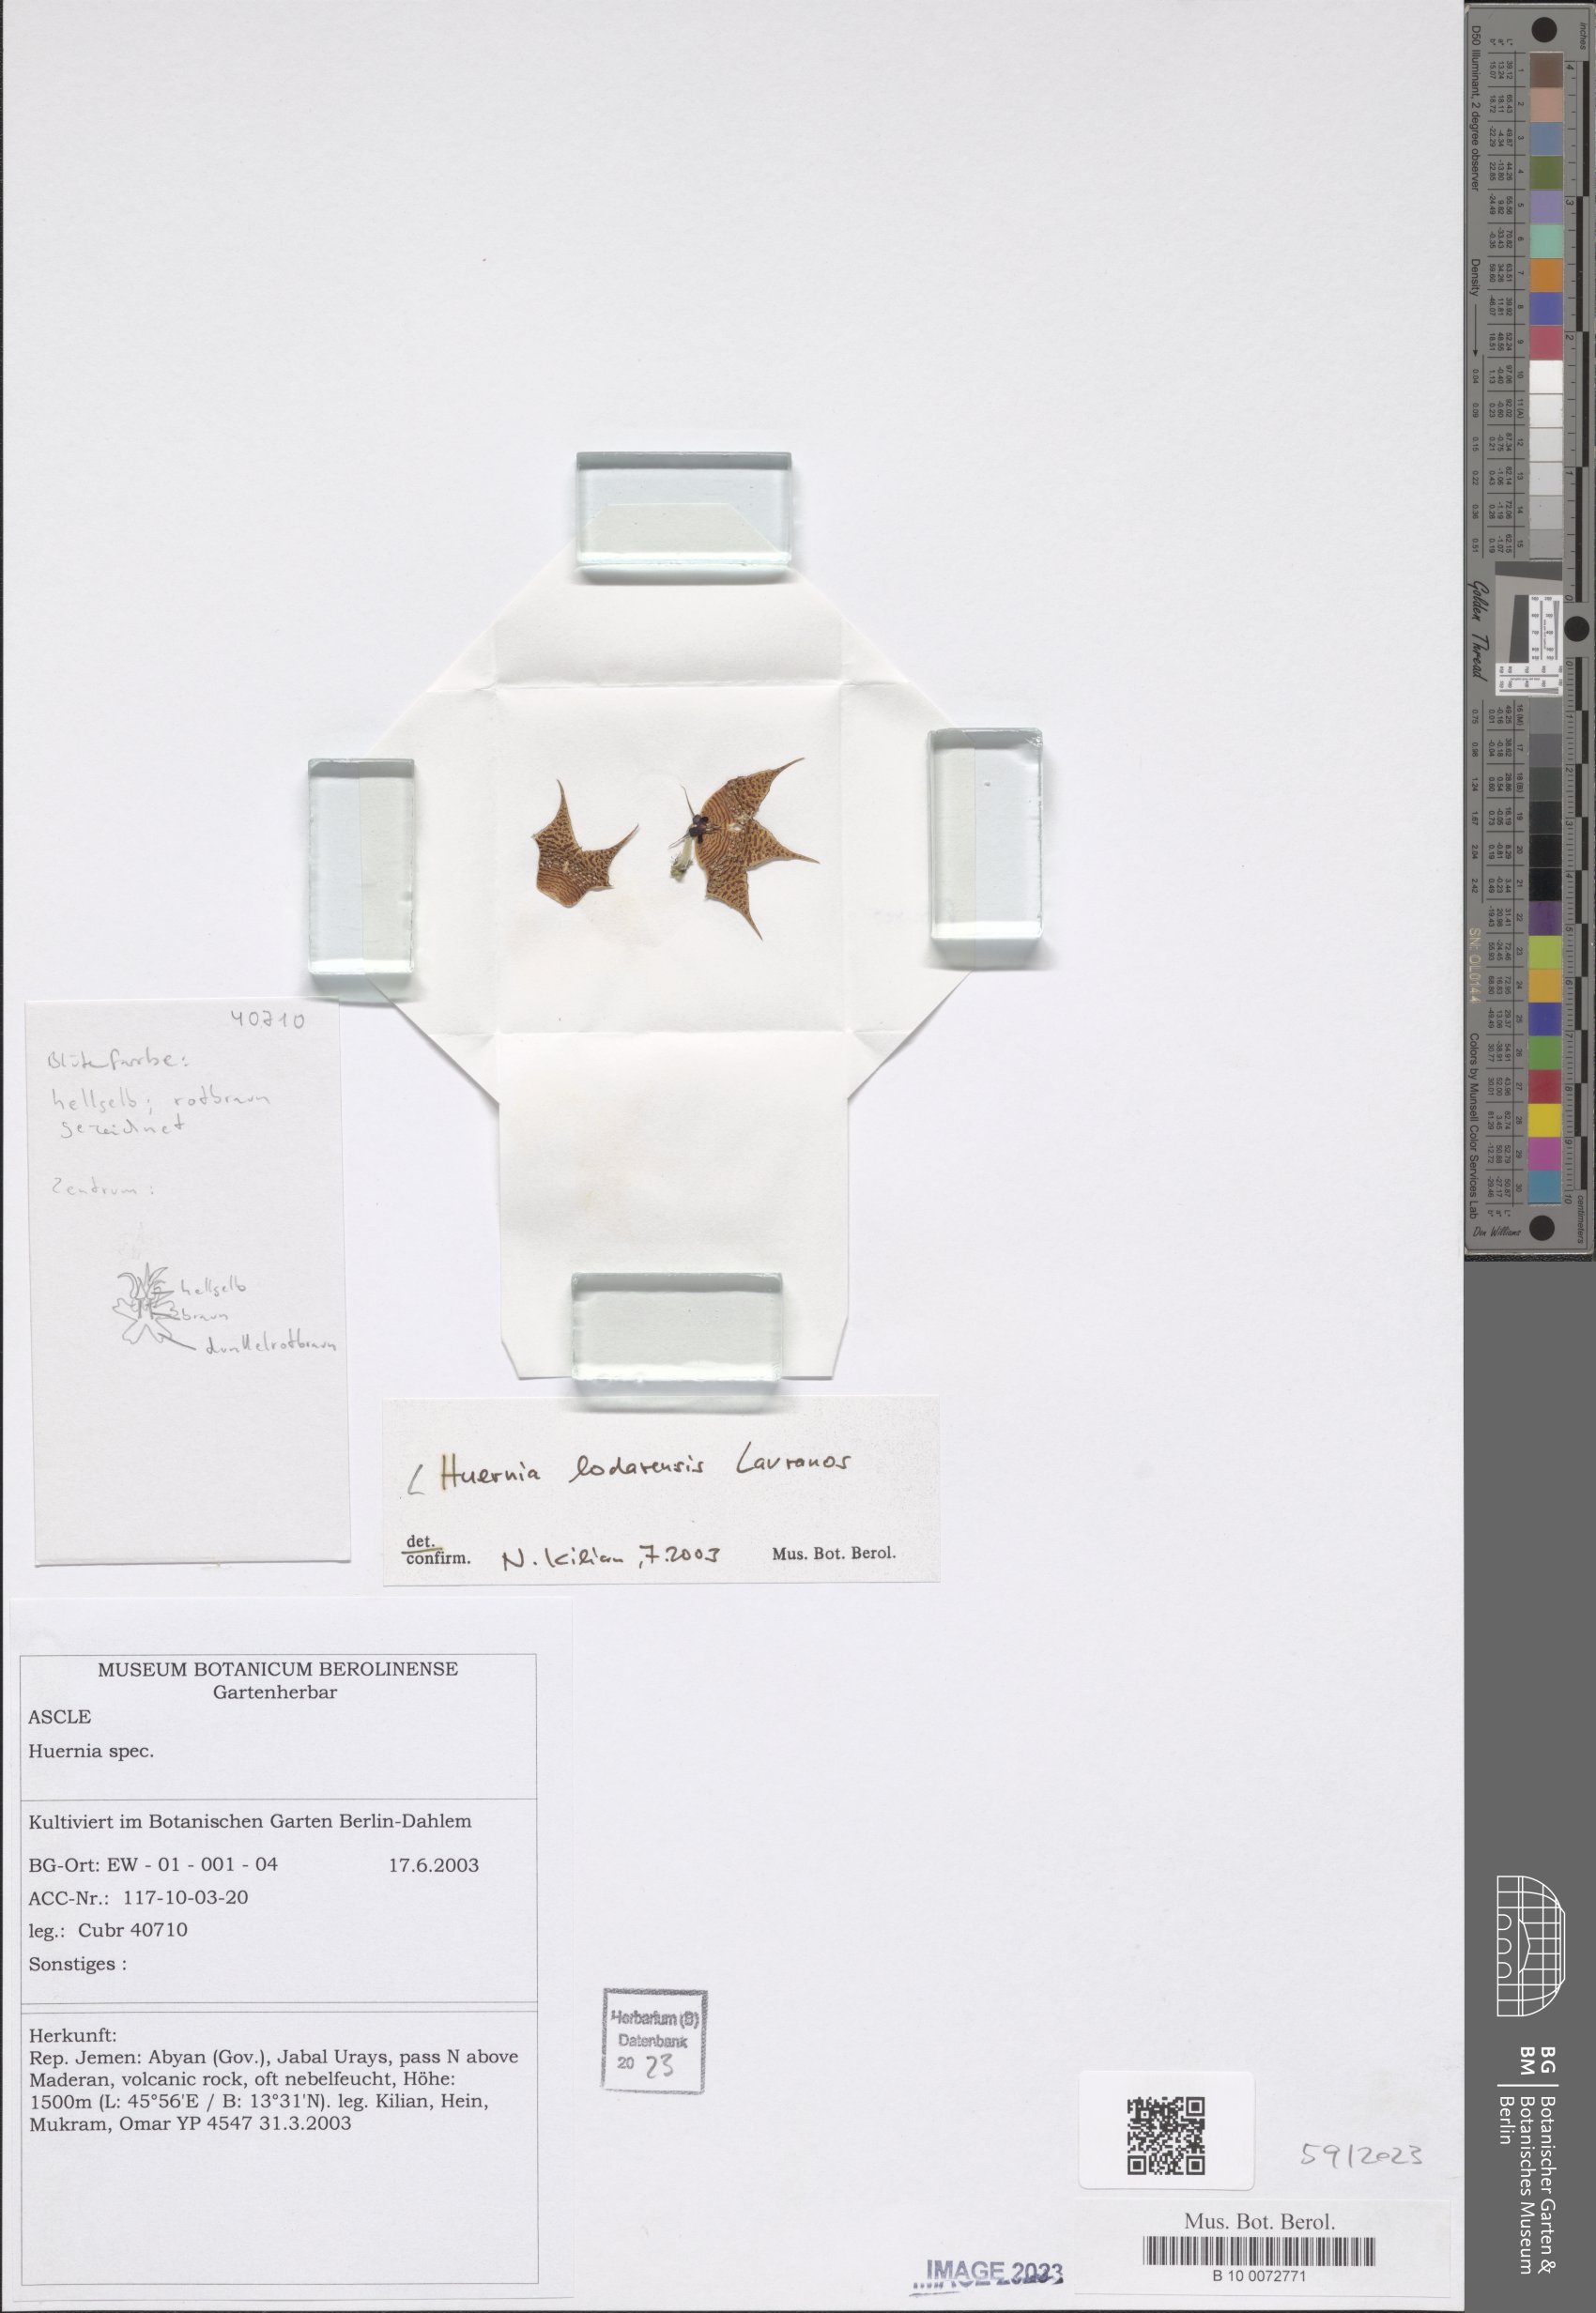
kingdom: Plantae
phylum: Tracheophyta
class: Magnoliopsida
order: Gentianales
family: Apocynaceae
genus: Ceropegia
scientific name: Ceropegia lodarensis
